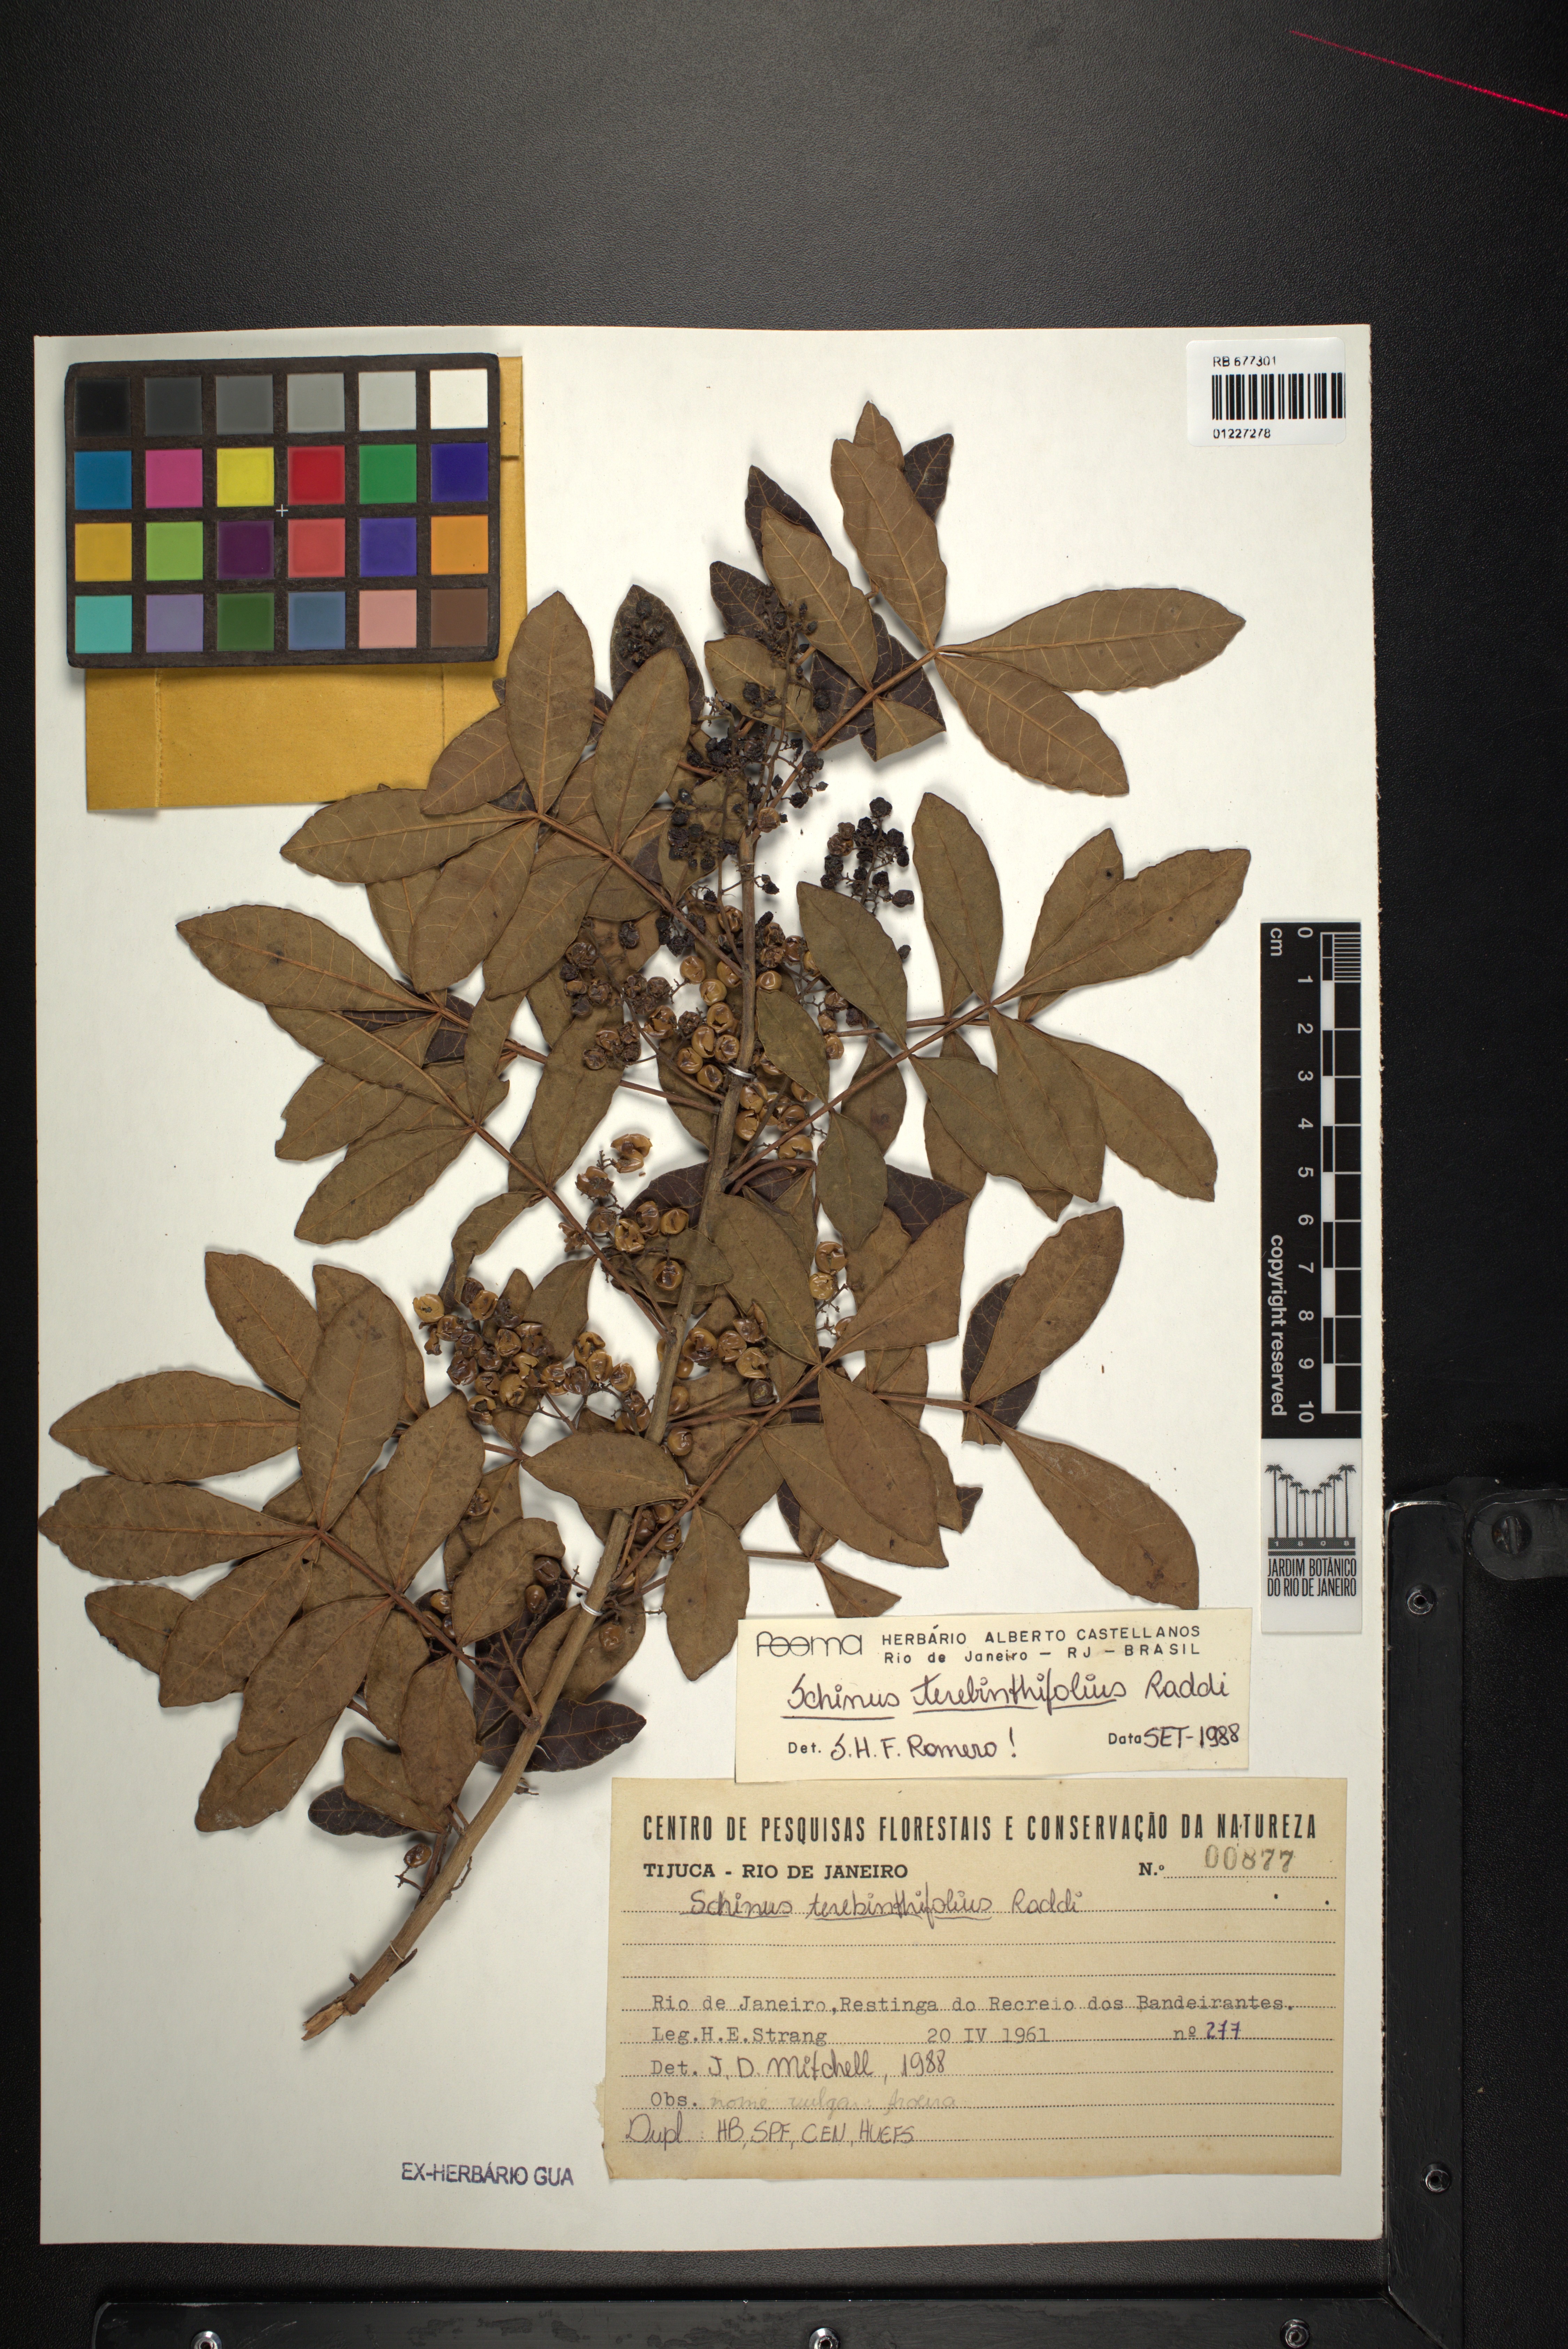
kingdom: Plantae
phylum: Tracheophyta
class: Magnoliopsida
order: Sapindales
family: Anacardiaceae
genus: Schinus
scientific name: Schinus terebinthifolia
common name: Brazilian peppertree
